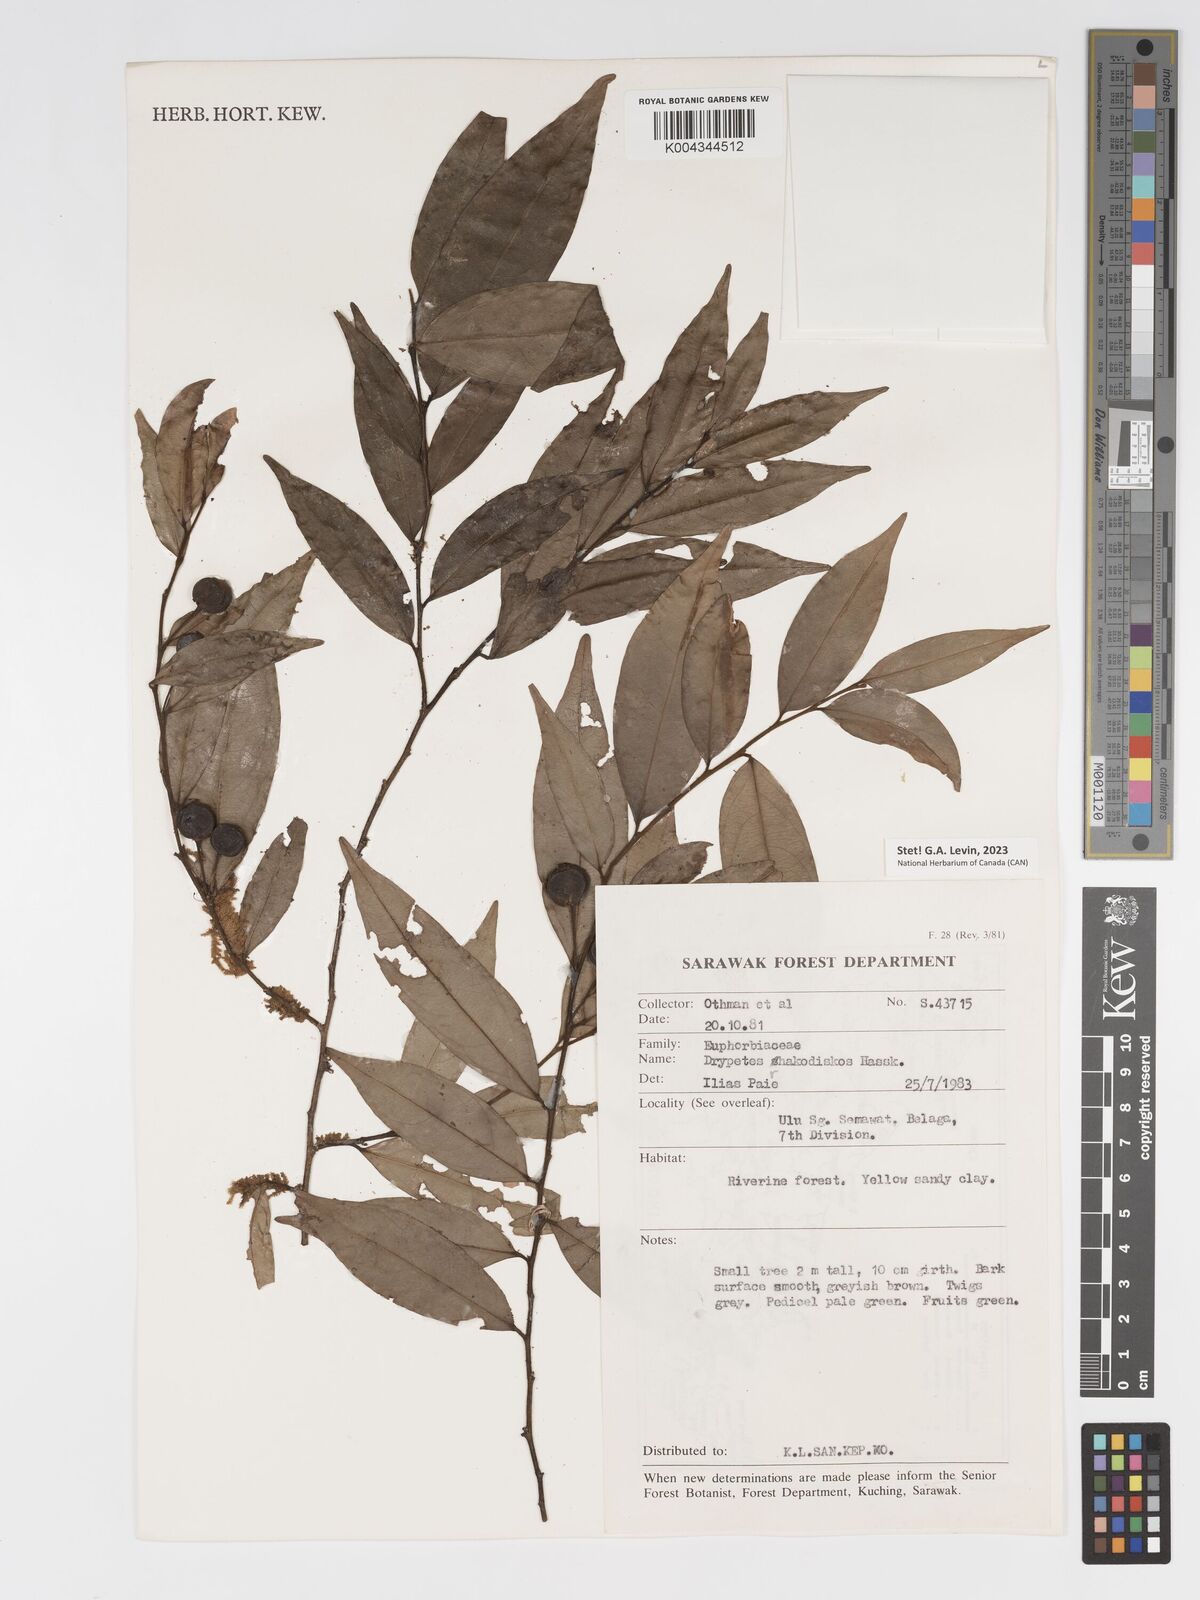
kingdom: Plantae
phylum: Tracheophyta
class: Magnoliopsida
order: Malpighiales
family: Putranjivaceae
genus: Drypetes
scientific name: Drypetes rhakodiskos
